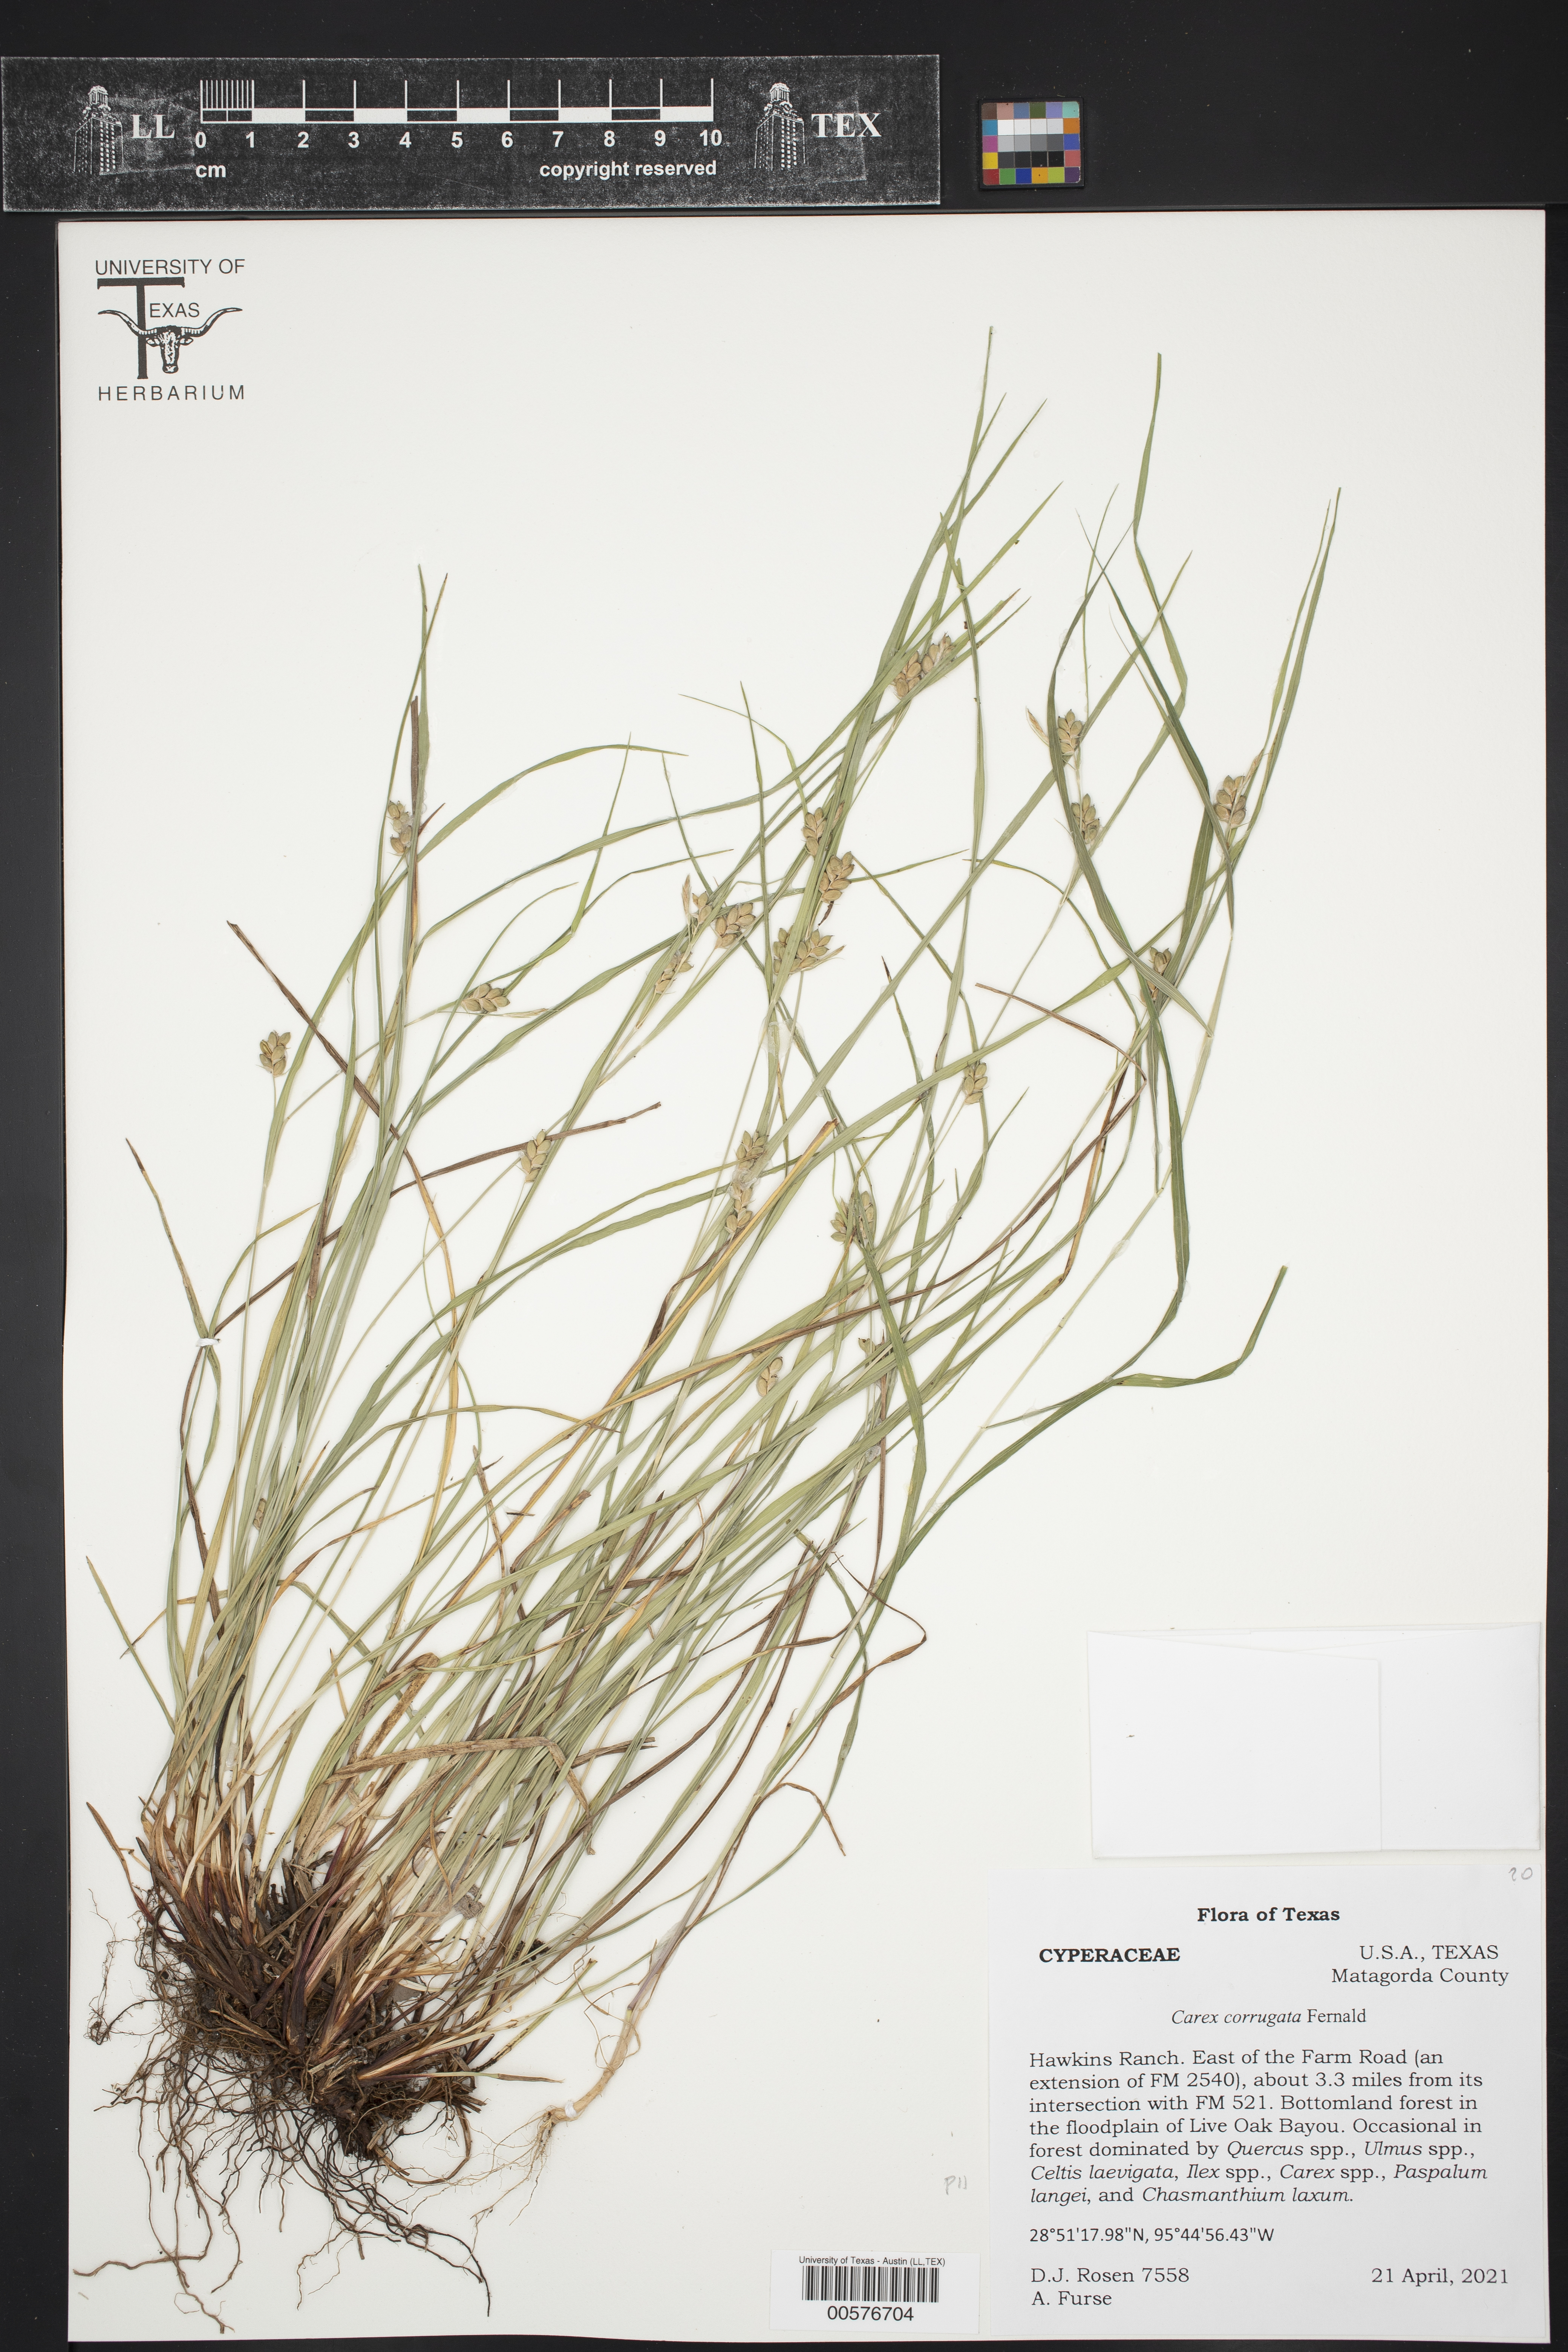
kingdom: Plantae
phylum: Tracheophyta
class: Liliopsida
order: Poales
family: Cyperaceae
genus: Carex
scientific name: Carex corrugata
